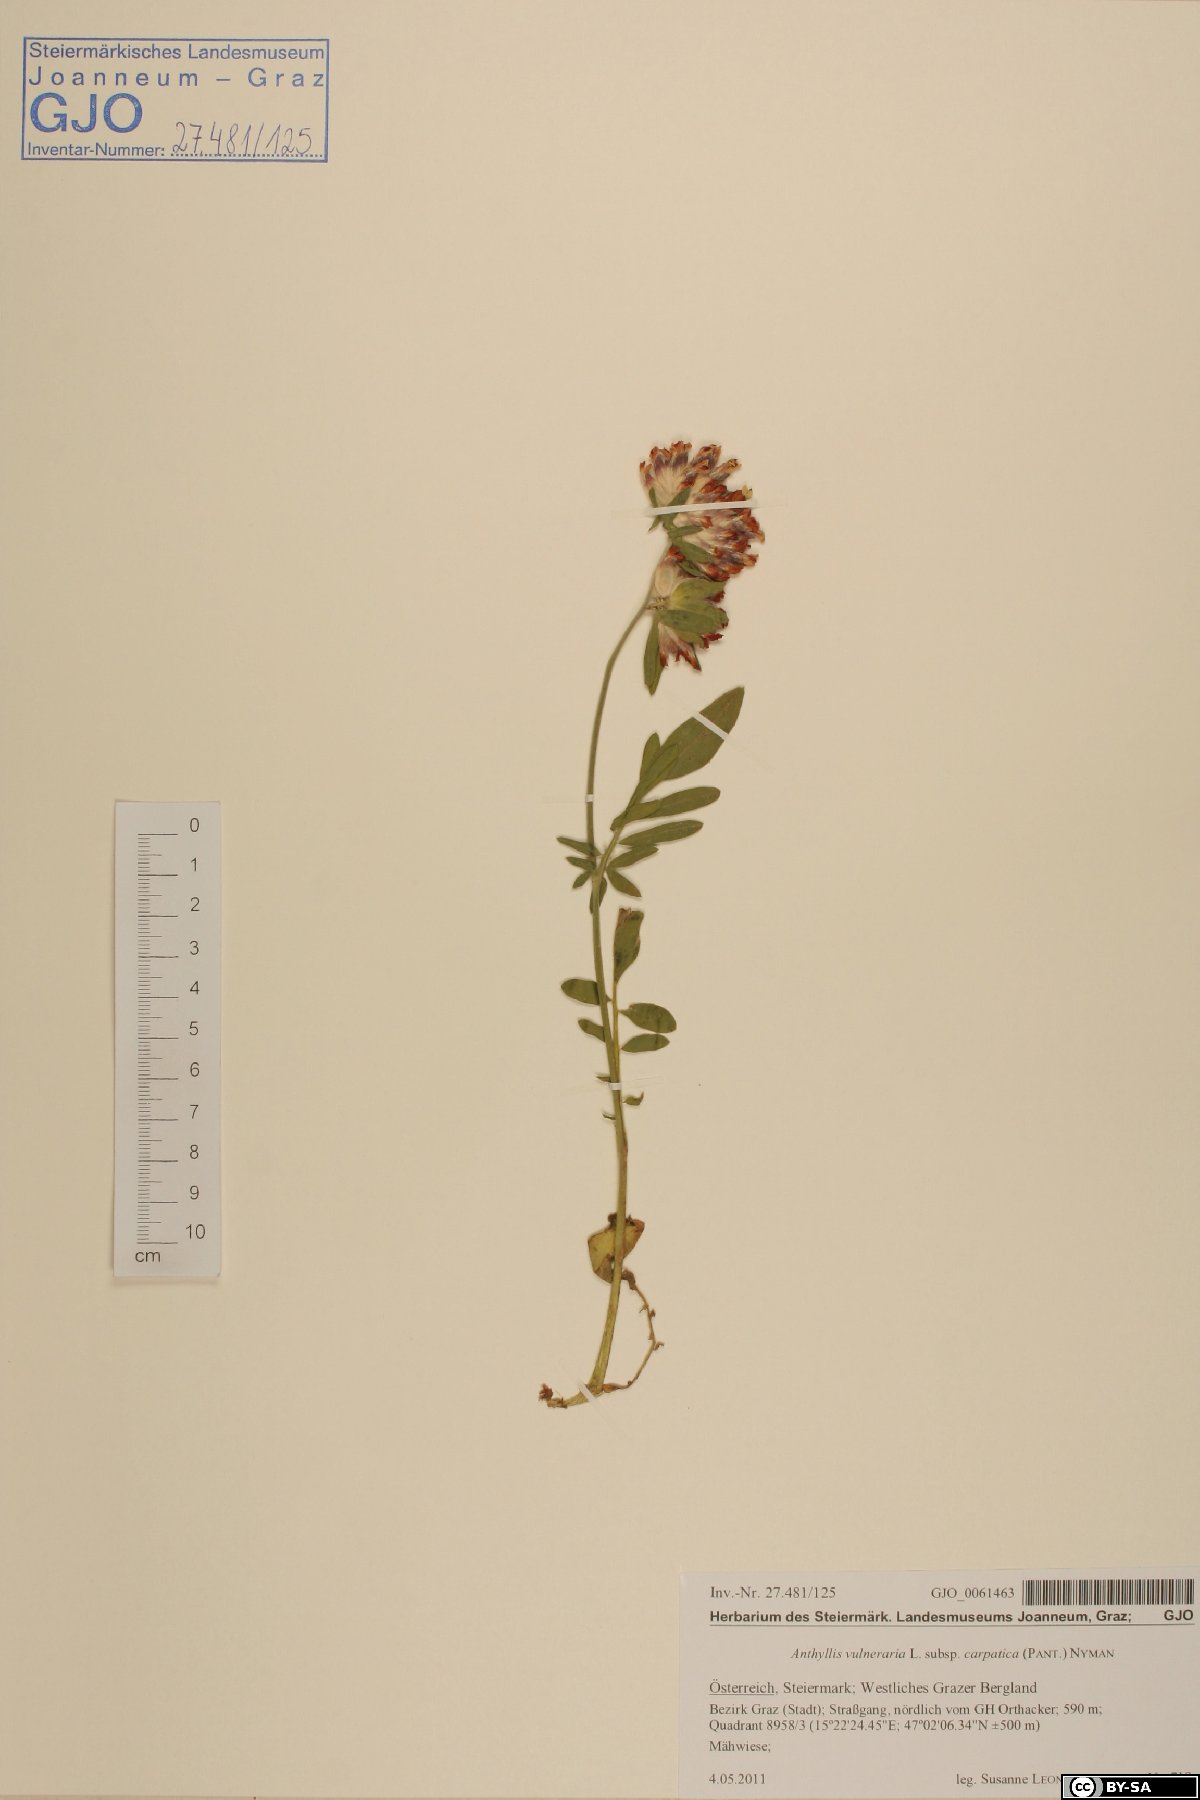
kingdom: Plantae
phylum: Tracheophyta
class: Magnoliopsida
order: Fabales
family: Fabaceae
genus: Anthyllis
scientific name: Anthyllis vulneraria
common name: Kidney vetch
